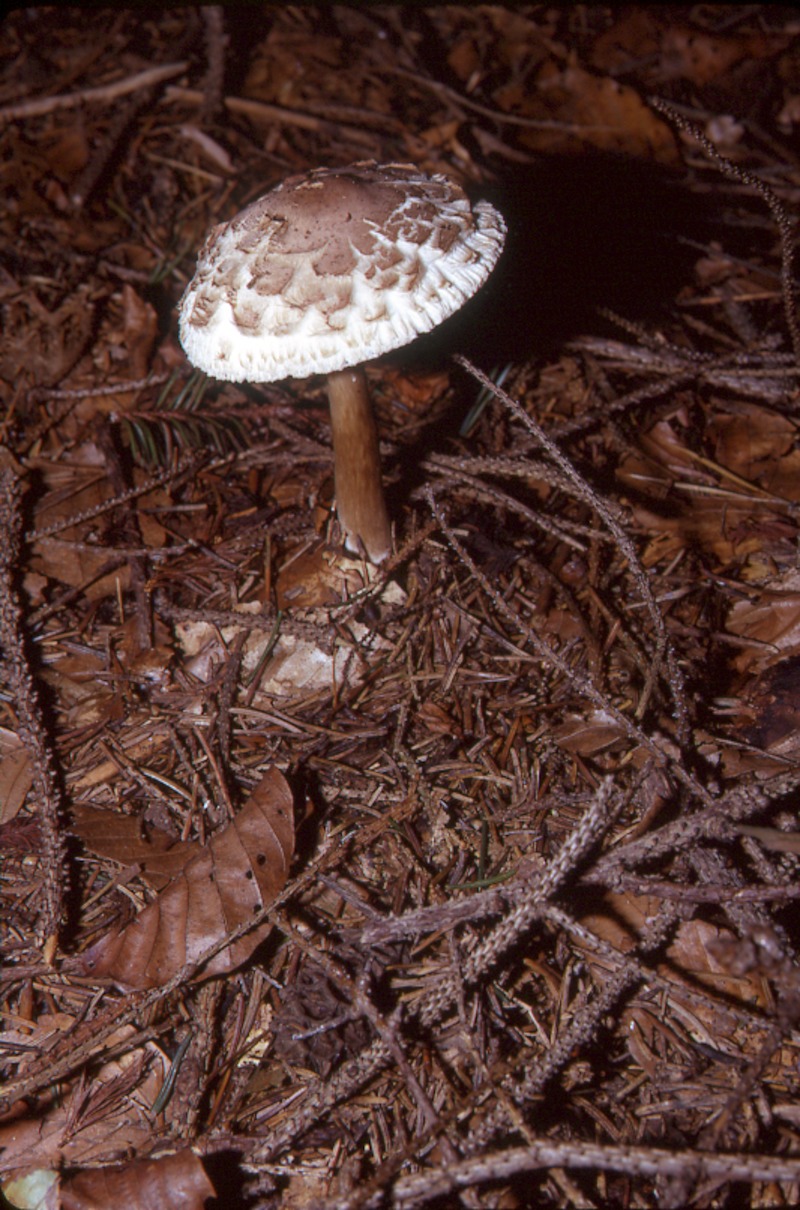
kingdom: Fungi
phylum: Basidiomycota
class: Agaricomycetes
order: Agaricales
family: Agaricaceae
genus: Chlorophyllum
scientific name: Chlorophyllum rachodes
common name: Shaggy parasol
